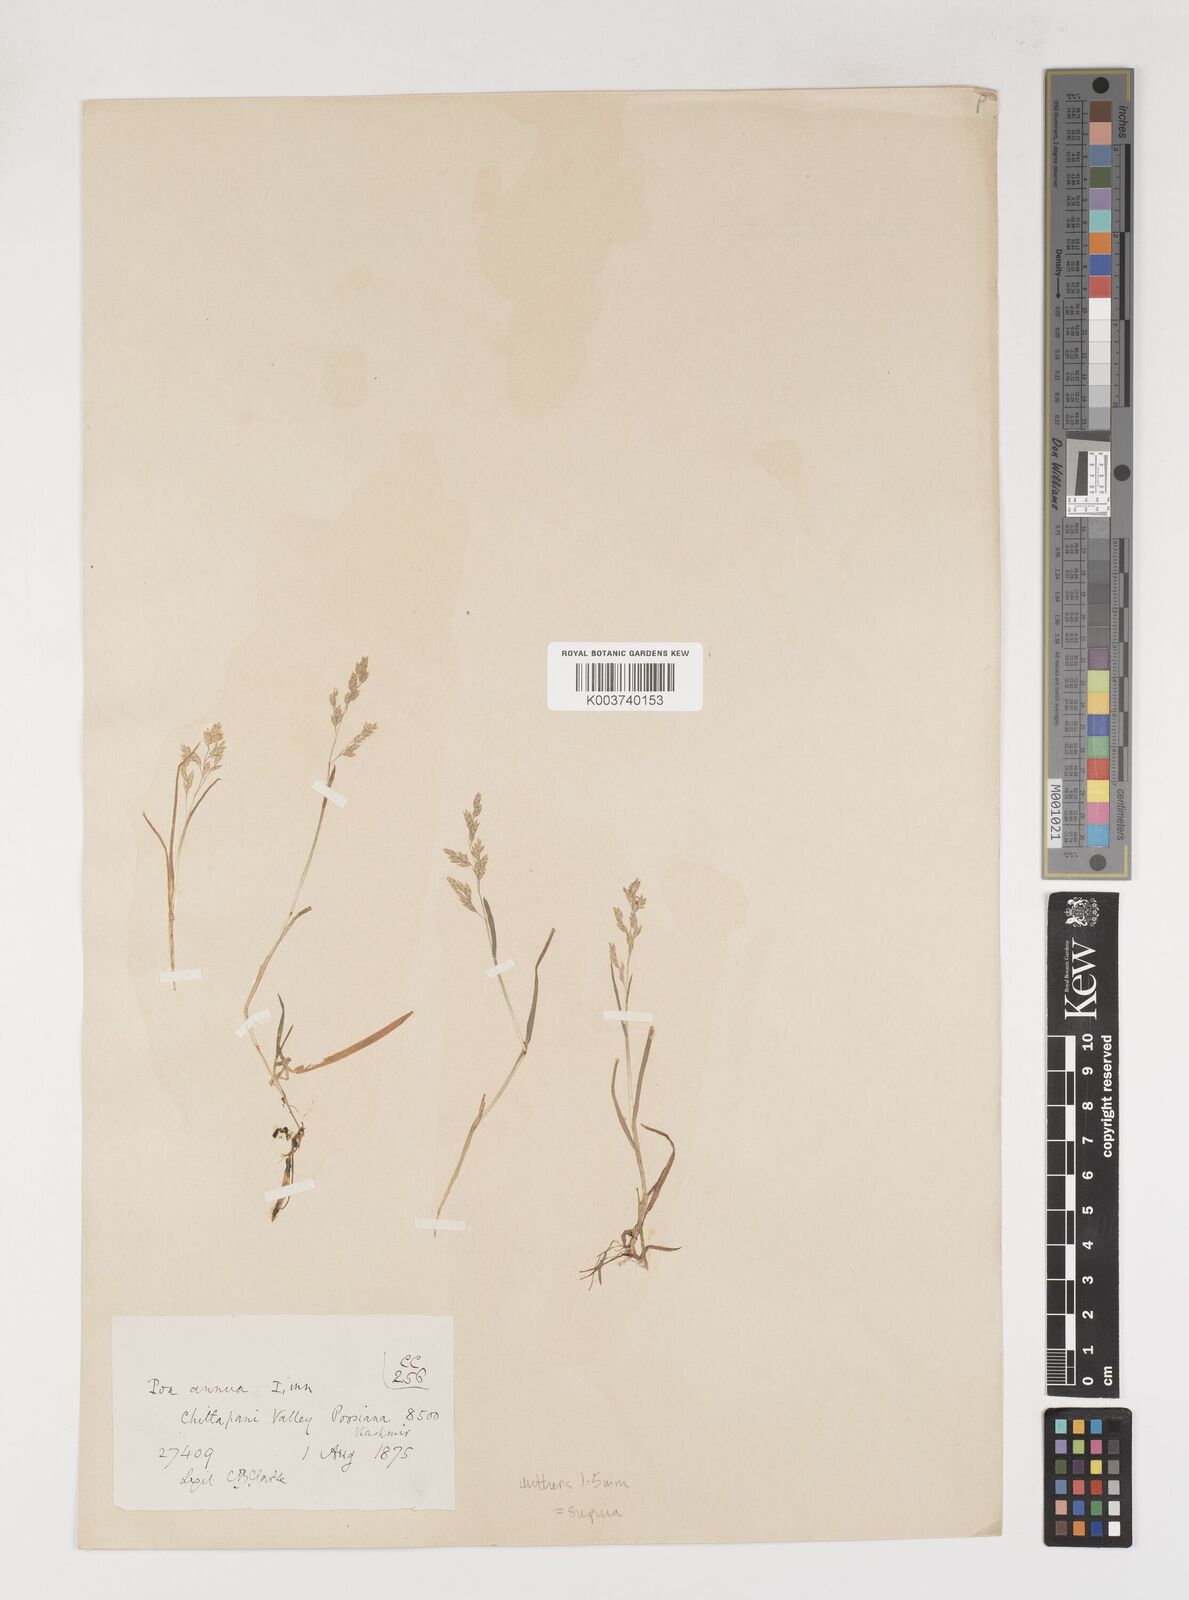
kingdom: Plantae
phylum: Tracheophyta
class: Liliopsida
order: Poales
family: Poaceae
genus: Poa
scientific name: Poa supina
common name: Supina bluegrass
